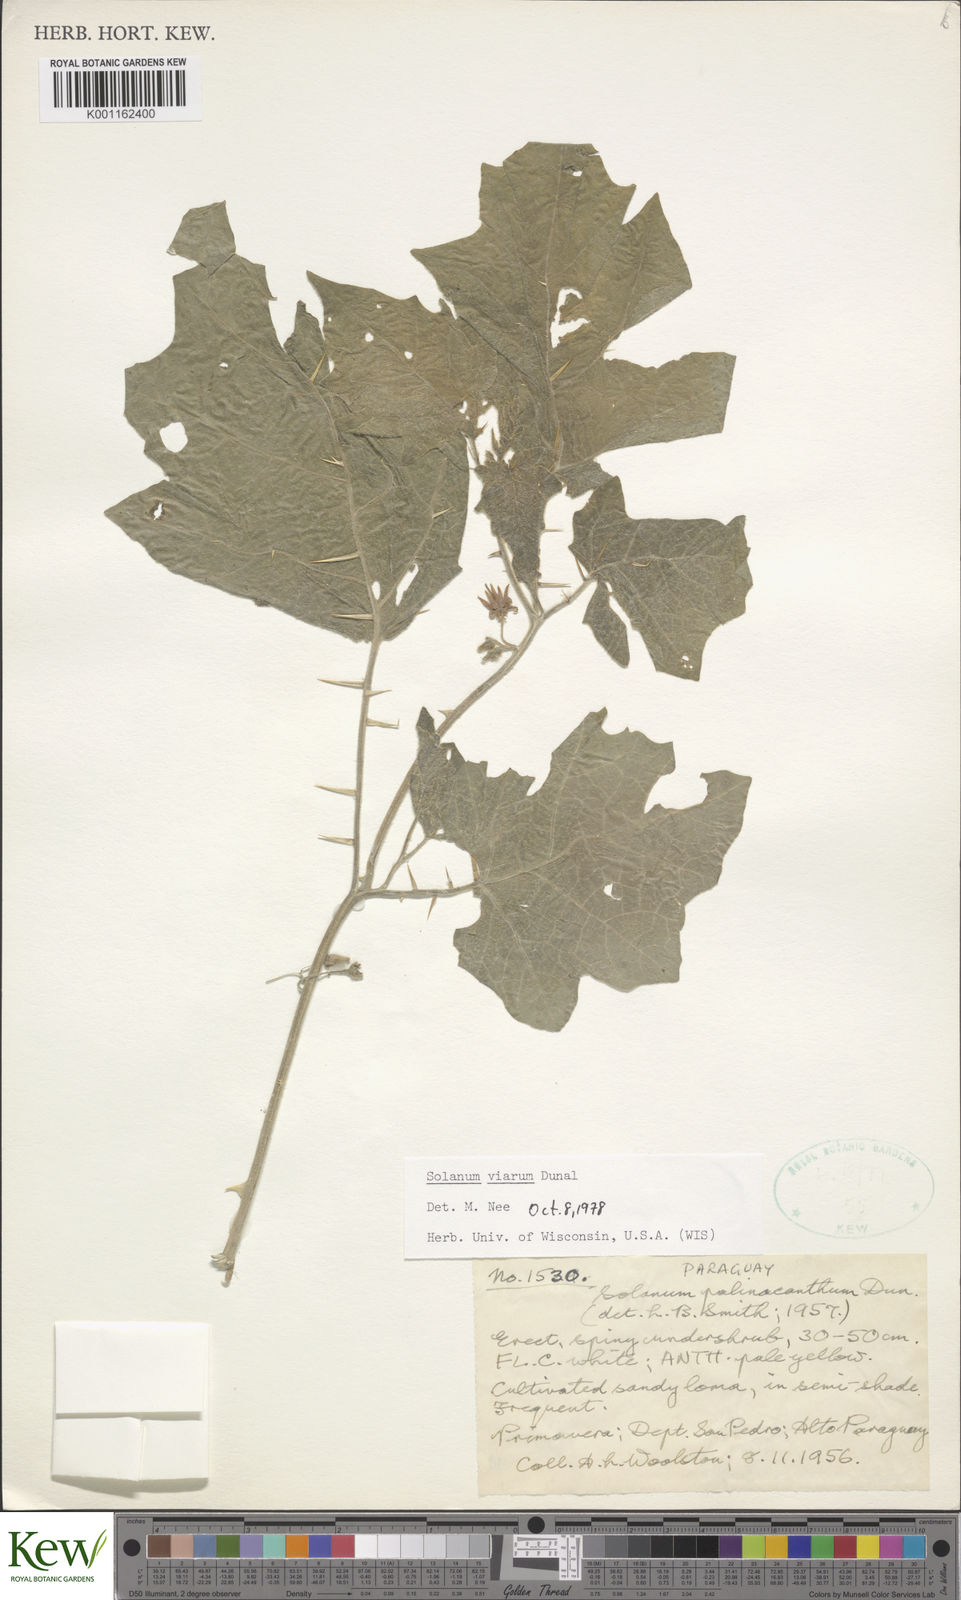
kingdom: Plantae
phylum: Tracheophyta
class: Magnoliopsida
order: Solanales
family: Solanaceae
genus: Solanum
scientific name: Solanum viarum
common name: Tropical soda apple
